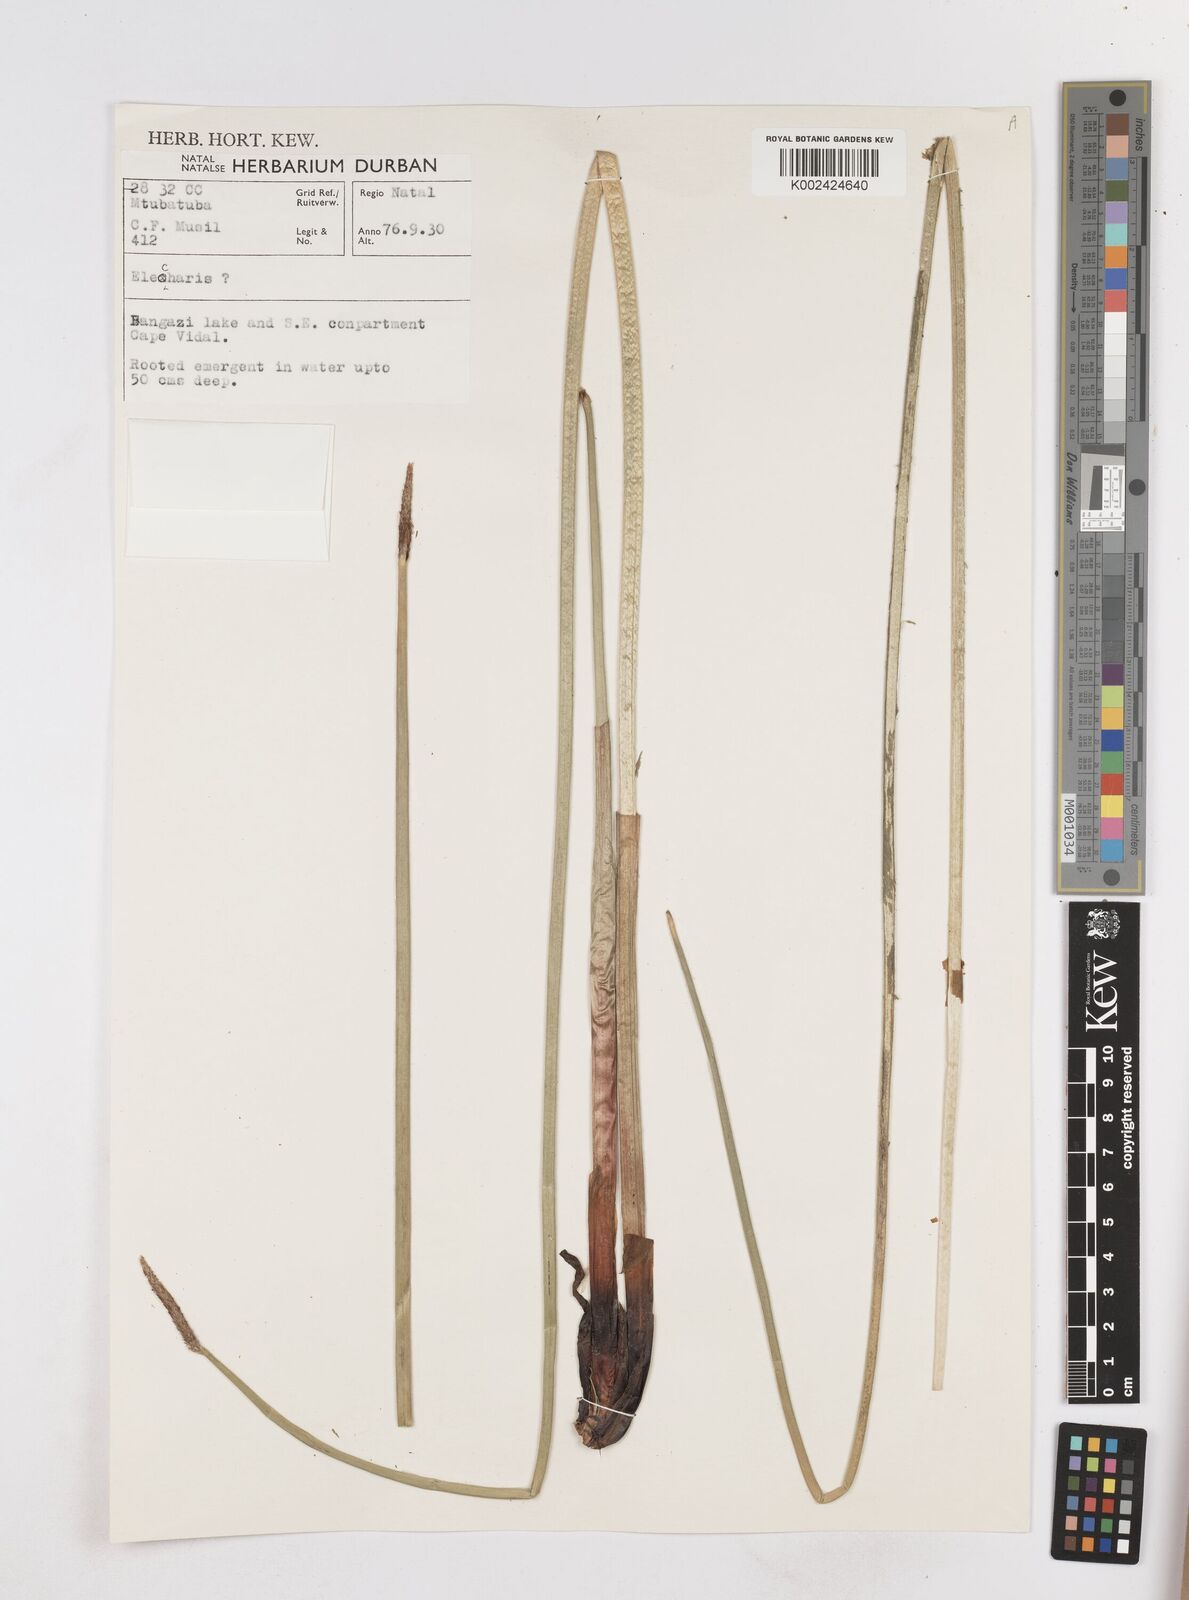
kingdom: Plantae
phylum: Tracheophyta
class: Liliopsida
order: Poales
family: Cyperaceae
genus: Eleocharis
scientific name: Eleocharis
